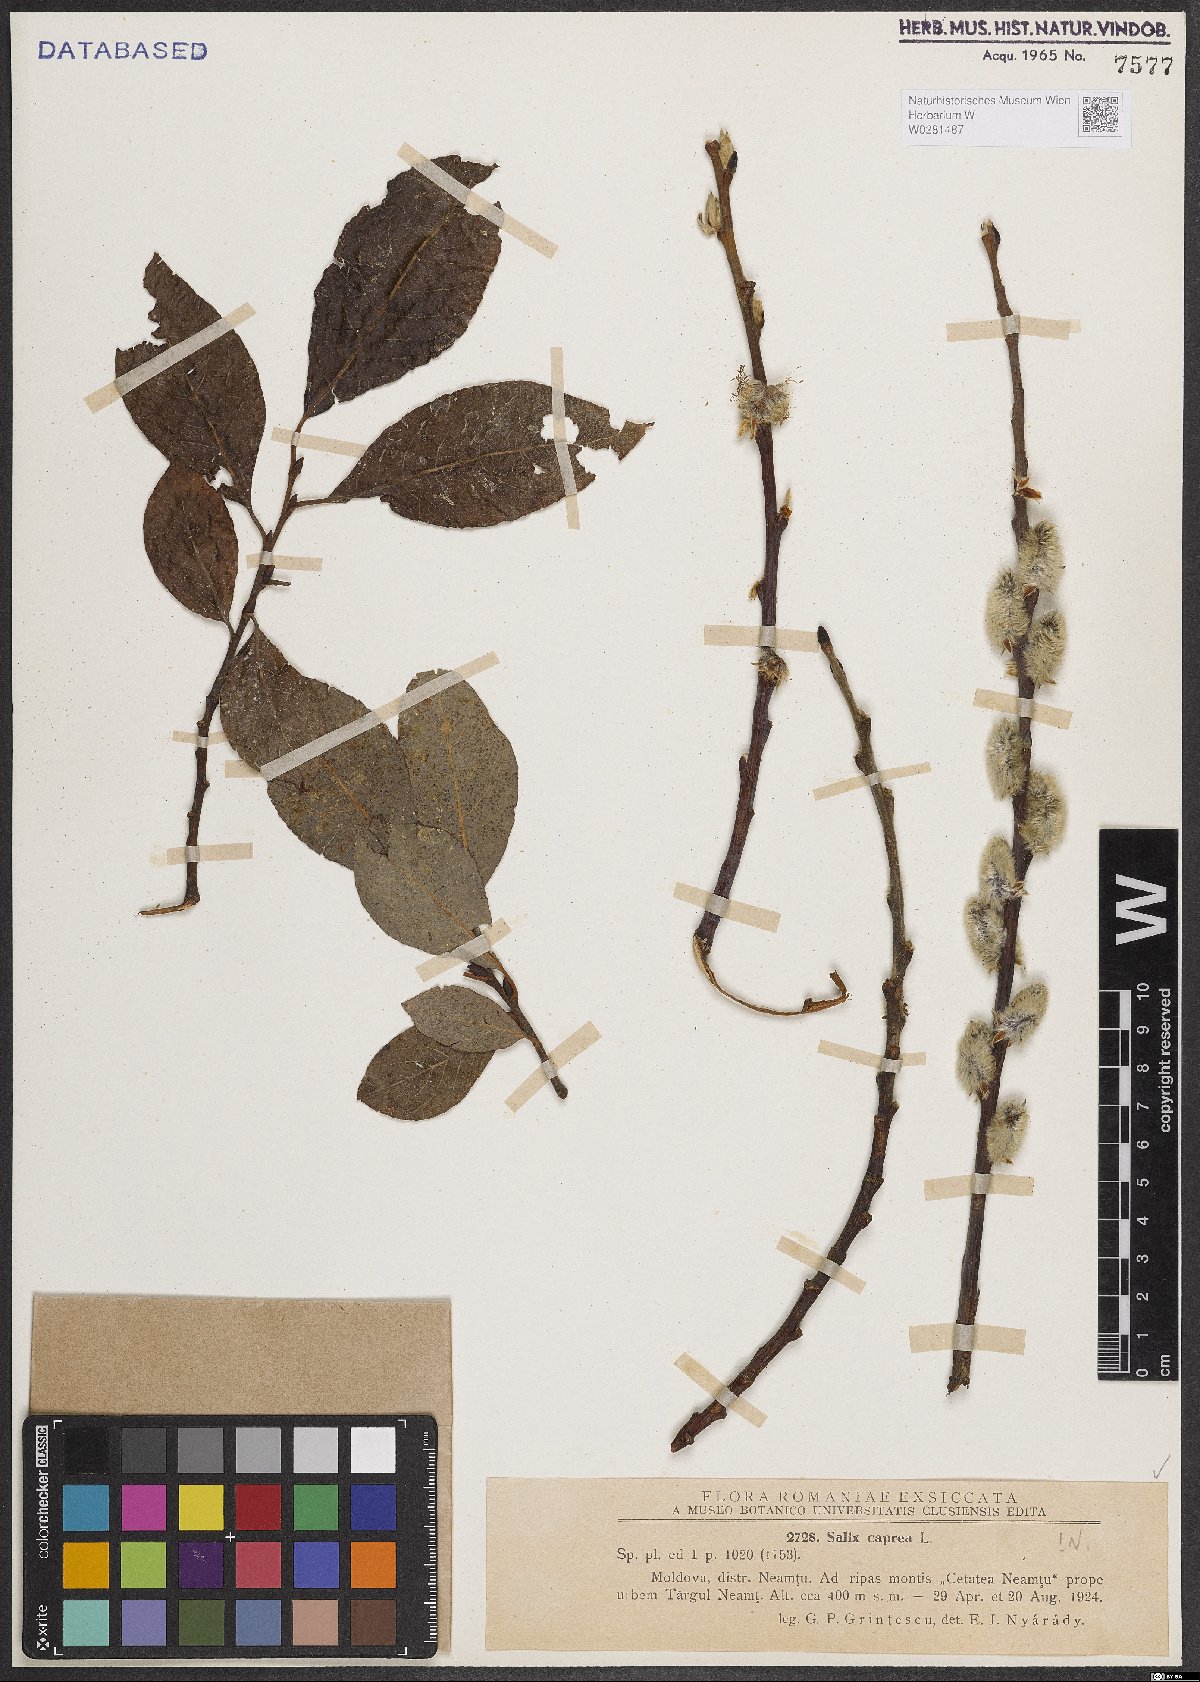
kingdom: Plantae
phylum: Tracheophyta
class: Magnoliopsida
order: Malpighiales
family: Salicaceae
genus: Salix
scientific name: Salix caprea
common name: Goat willow
